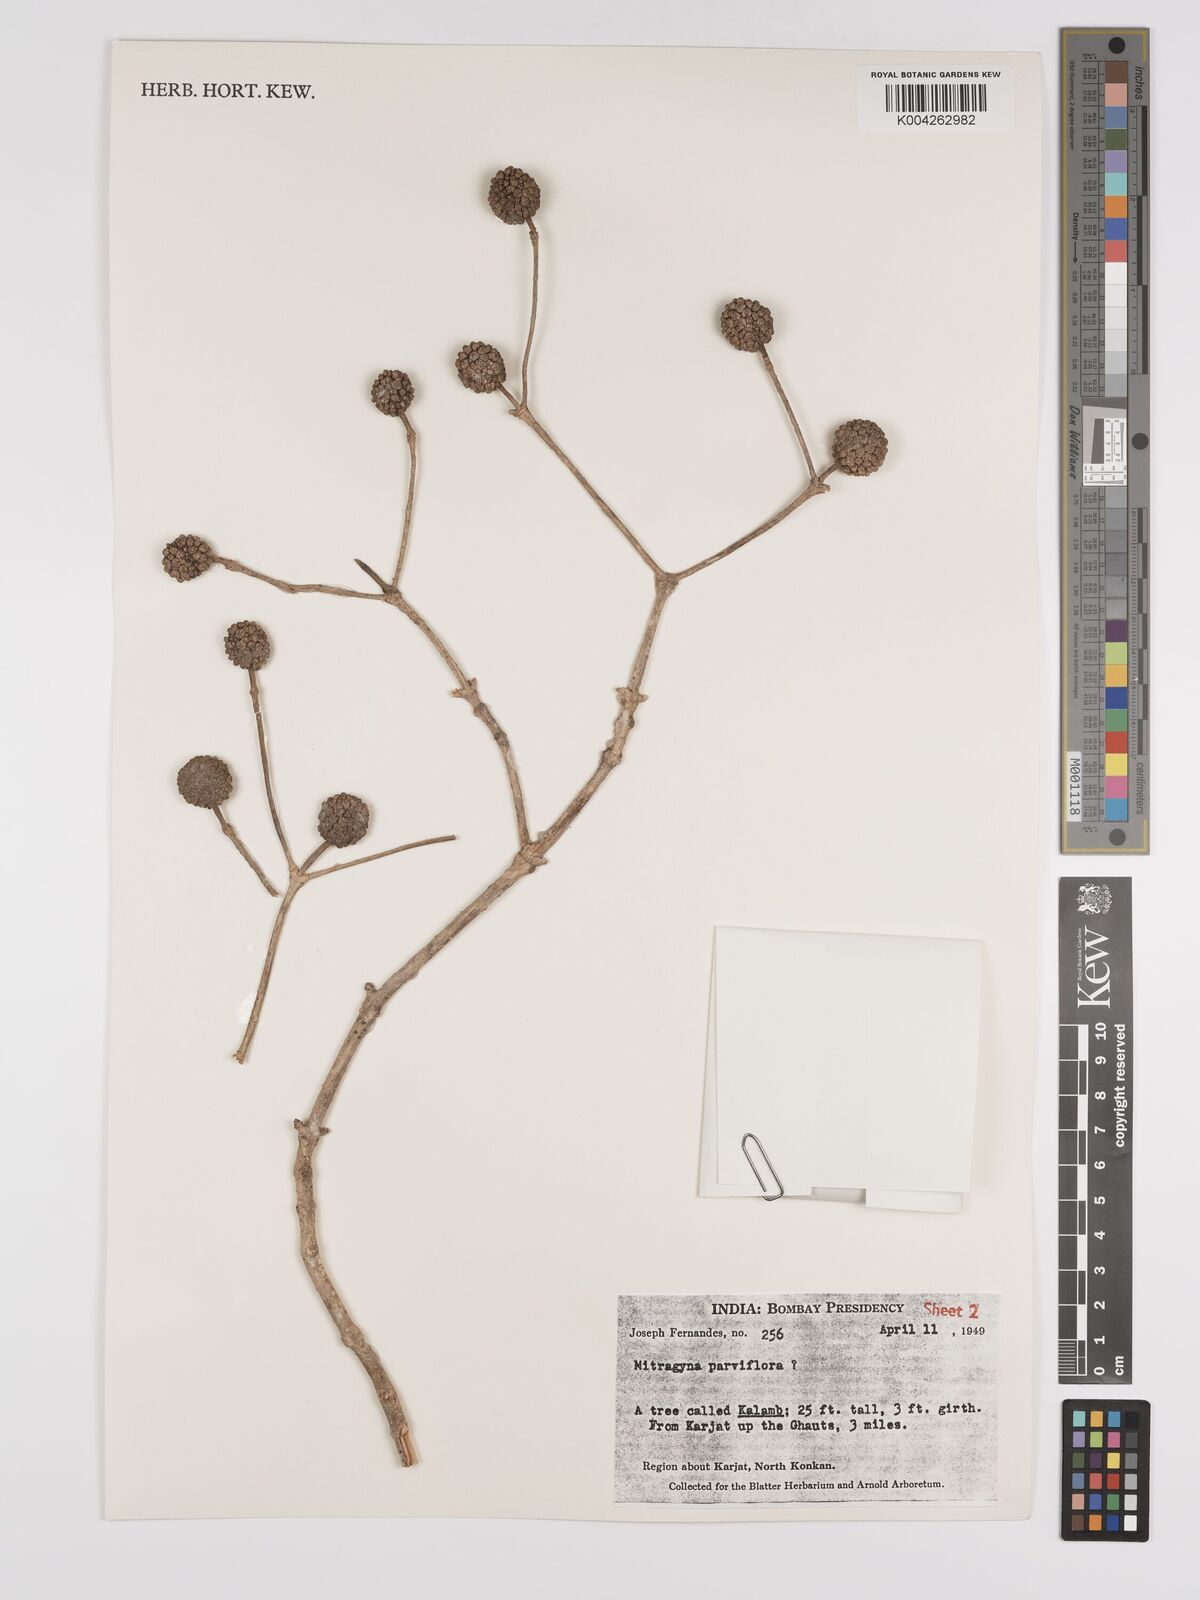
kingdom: Plantae
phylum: Tracheophyta
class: Magnoliopsida
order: Gentianales
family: Rubiaceae
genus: Mitragyna
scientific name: Mitragyna parvifolia
